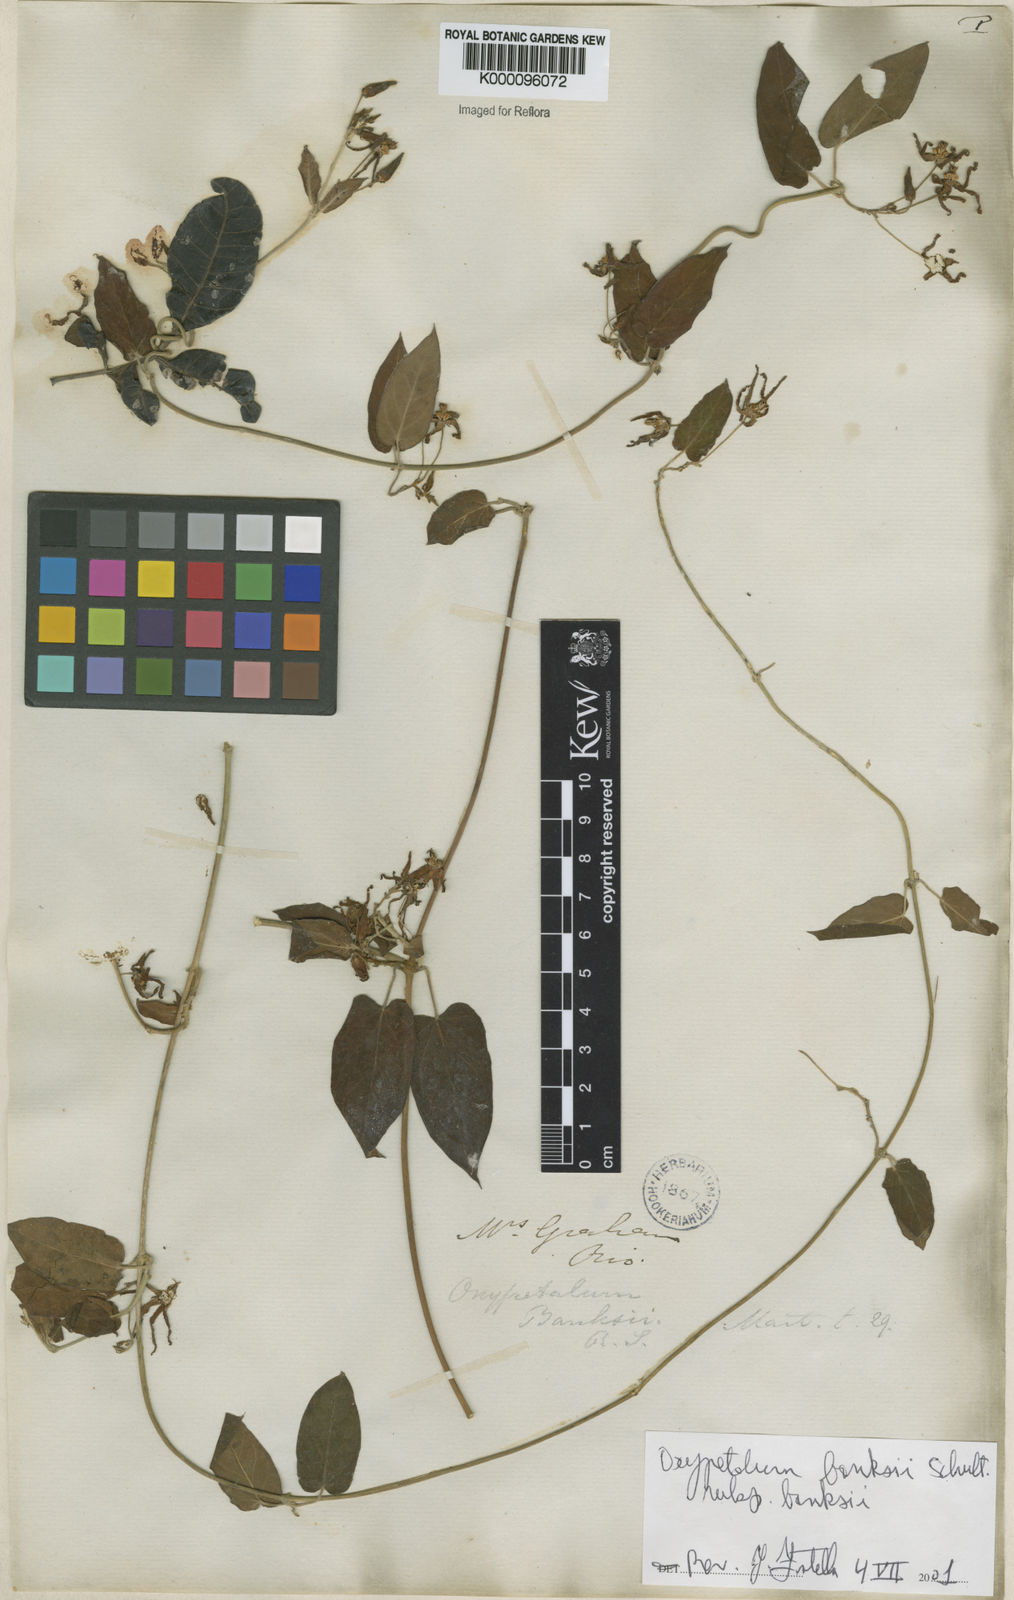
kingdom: Plantae
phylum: Tracheophyta
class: Magnoliopsida
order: Gentianales
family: Apocynaceae
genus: Oxypetalum
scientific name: Oxypetalum banksii
